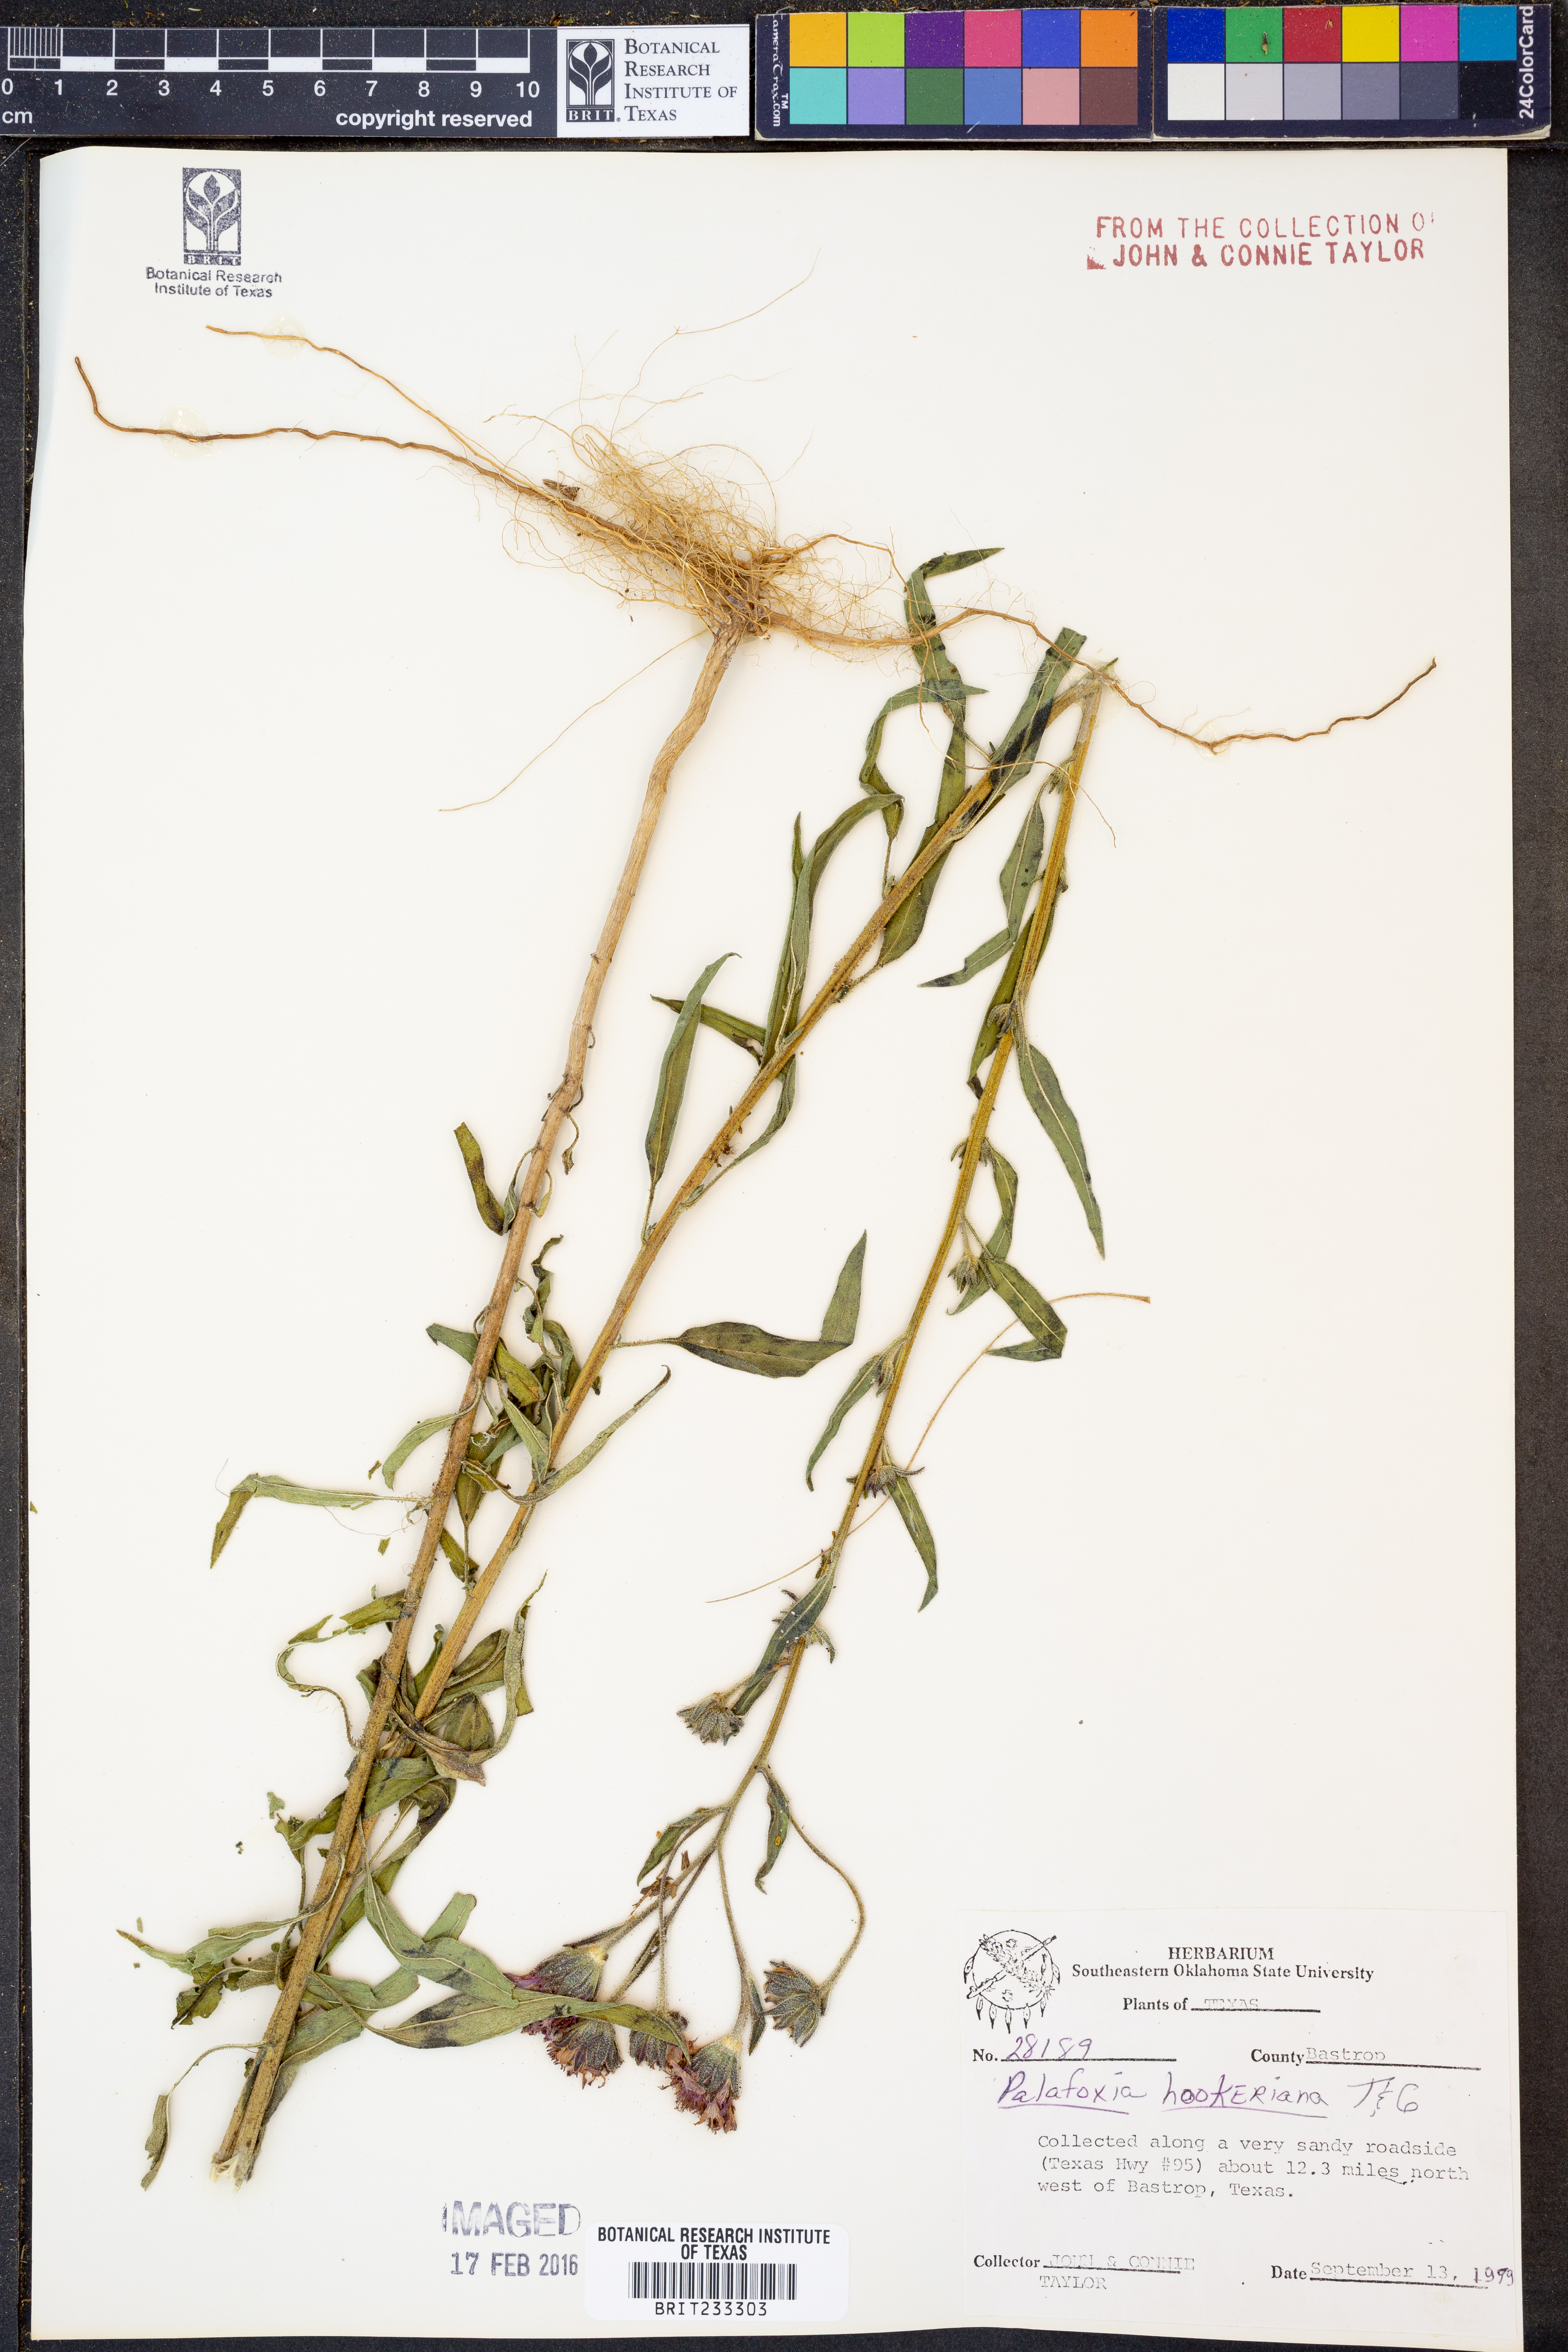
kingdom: Plantae
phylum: Tracheophyta
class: Magnoliopsida
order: Asterales
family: Asteraceae
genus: Palafoxia
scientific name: Palafoxia hookeriana
